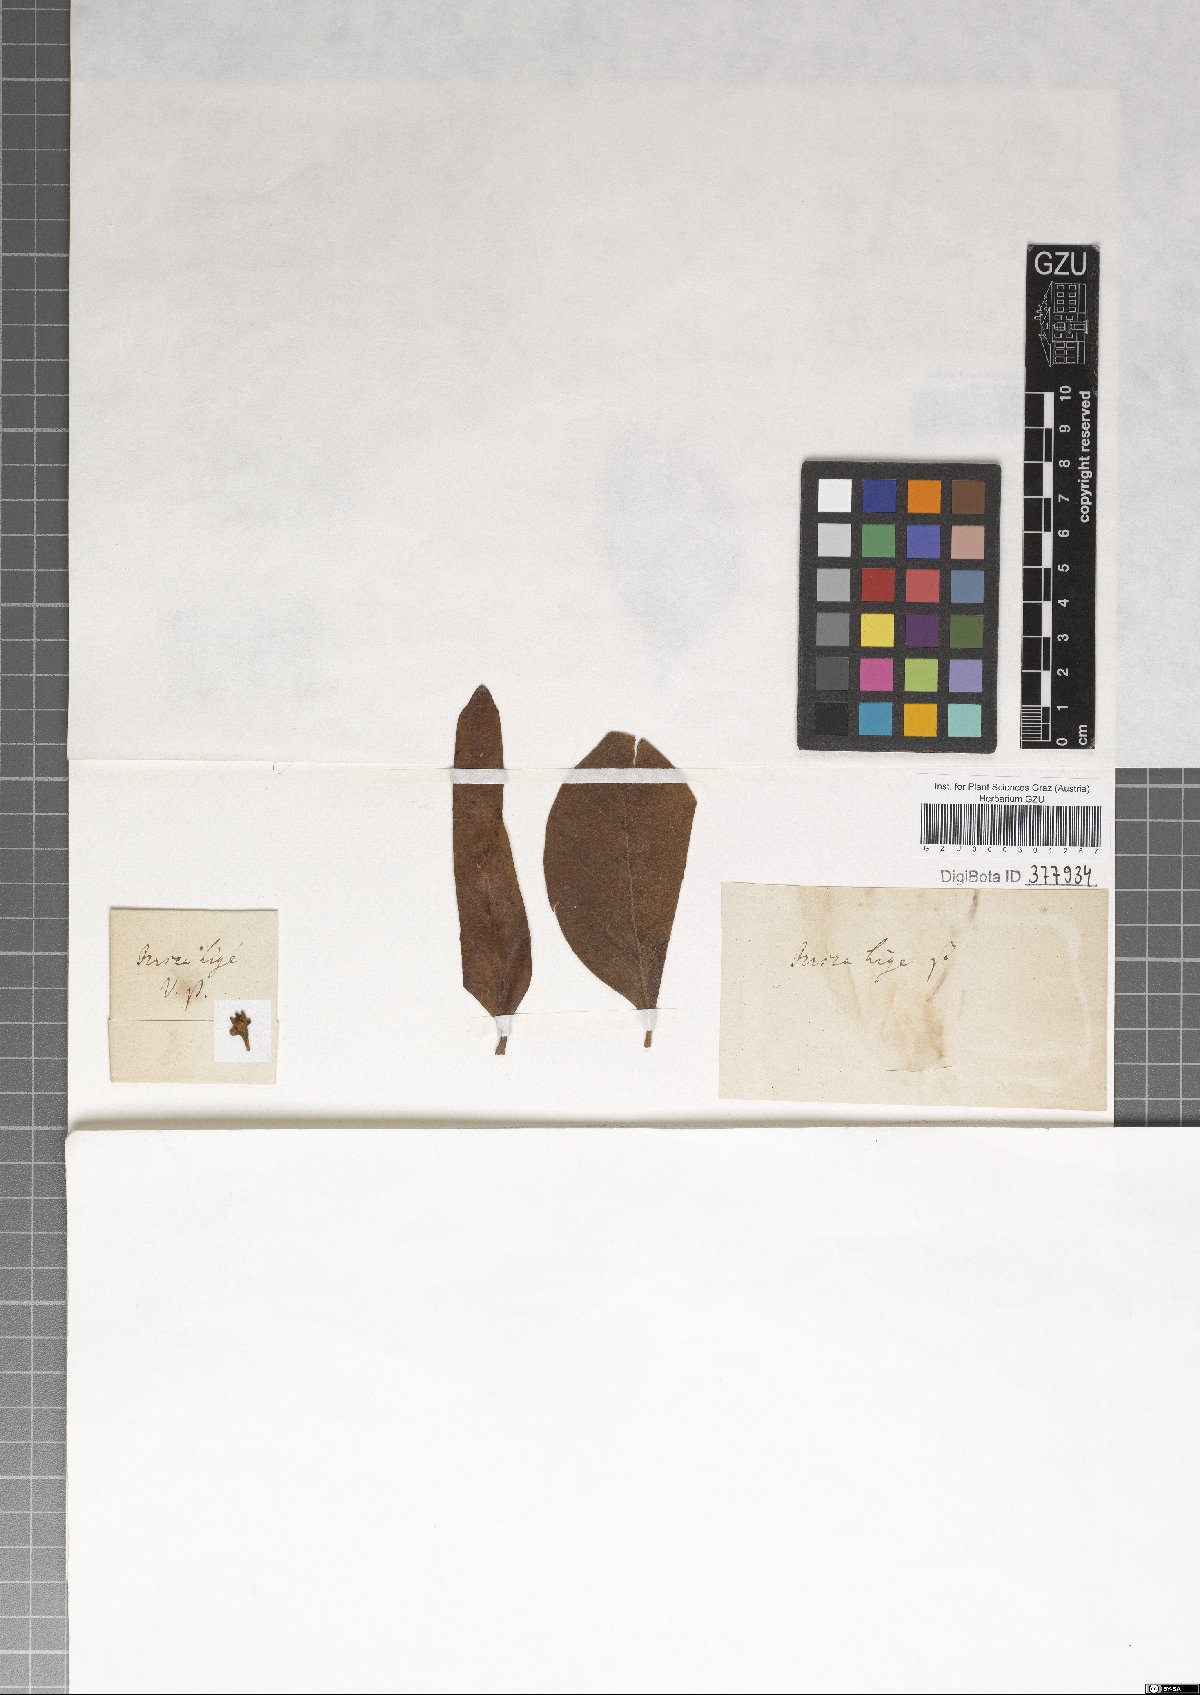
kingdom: Plantae
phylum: Tracheophyta
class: Magnoliopsida
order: Laurales
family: Lauraceae
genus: Persea
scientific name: Persea lingue
